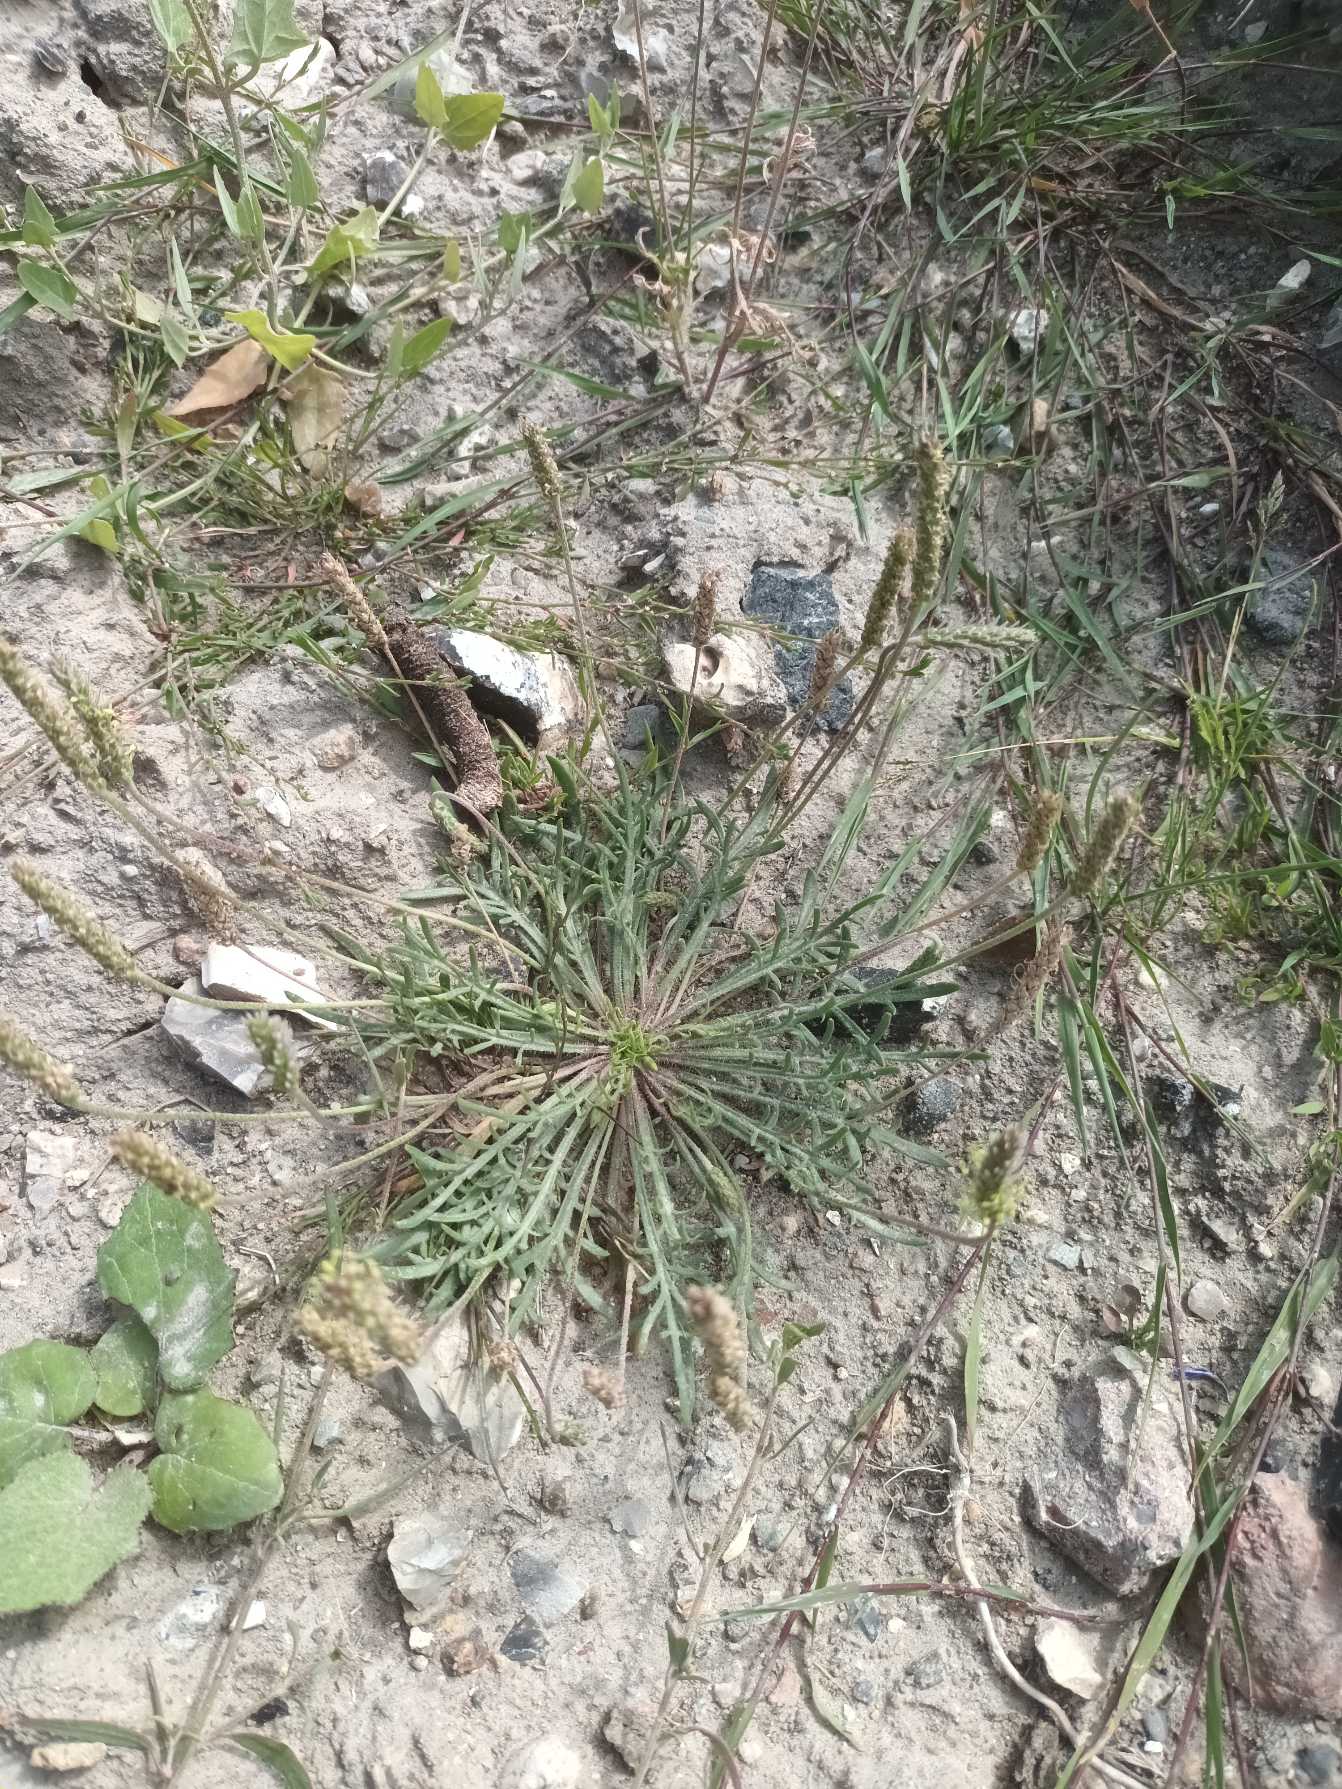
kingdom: Plantae
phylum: Tracheophyta
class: Magnoliopsida
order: Lamiales
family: Plantaginaceae
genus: Plantago
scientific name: Plantago coronopus
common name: Fliget vejbred
